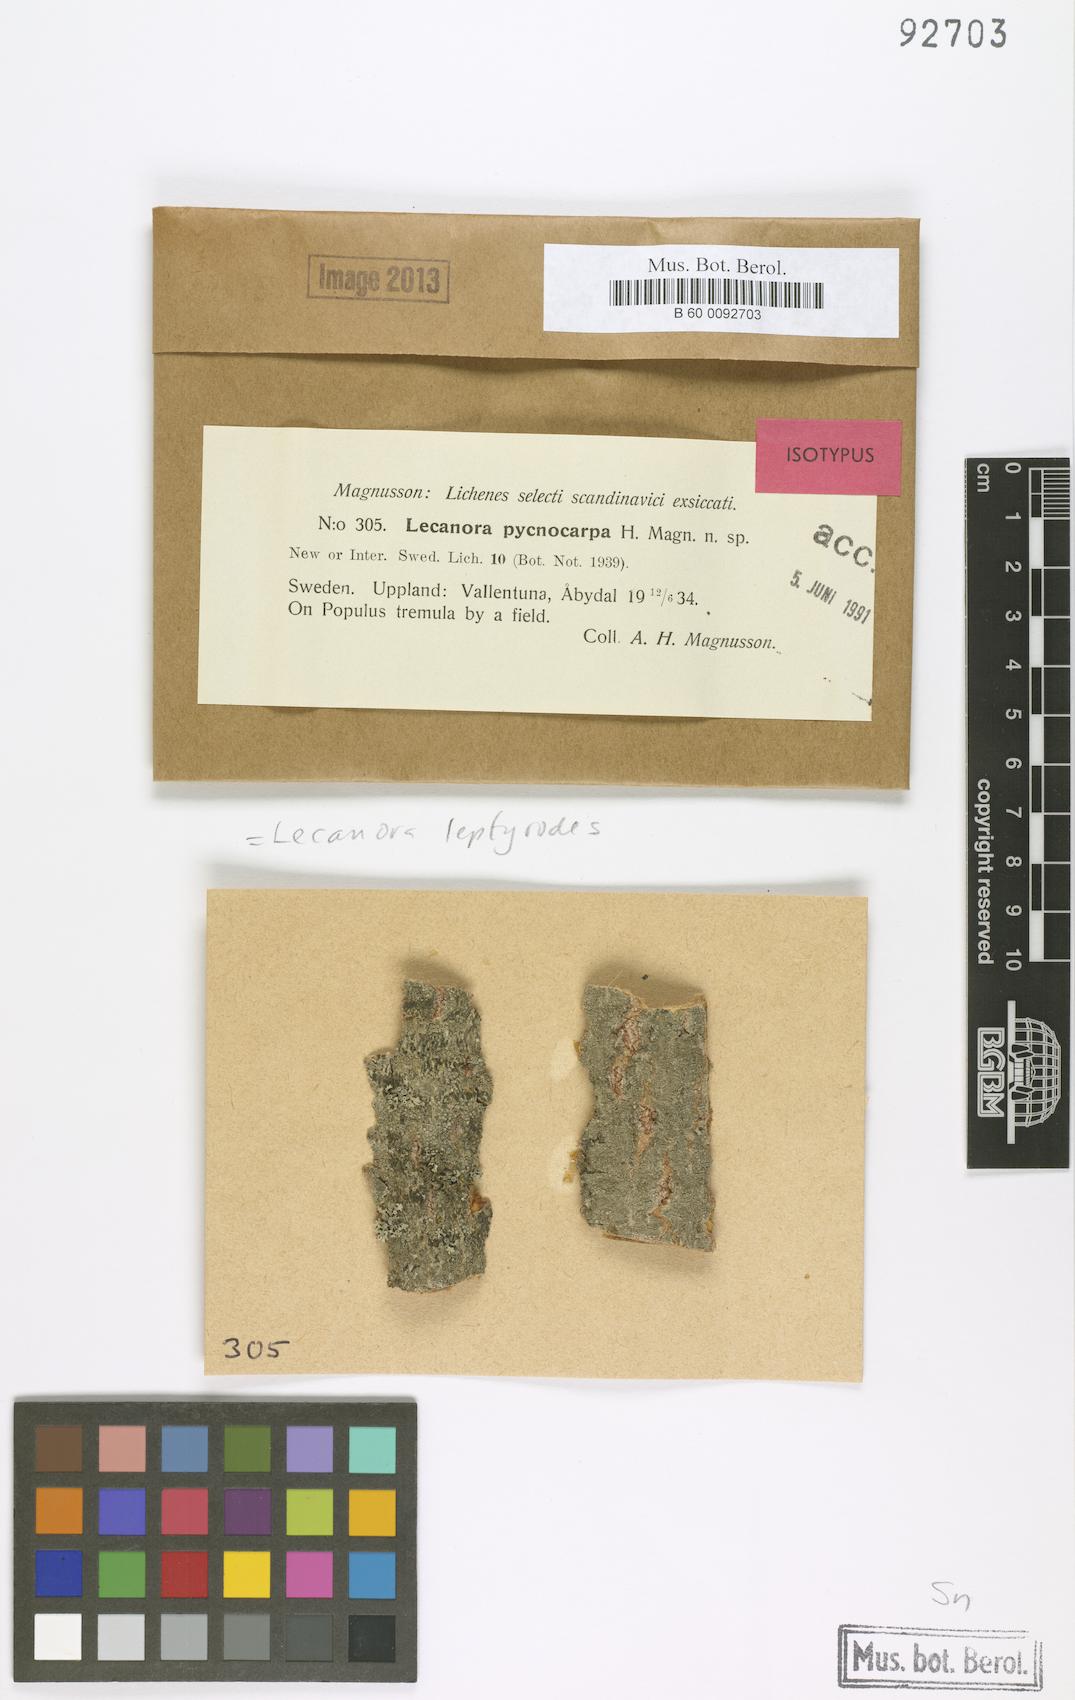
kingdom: Fungi
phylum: Ascomycota
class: Lecanoromycetes
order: Lecanorales
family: Lecanoraceae
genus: Lecanora
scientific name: Lecanora leptyrodes
